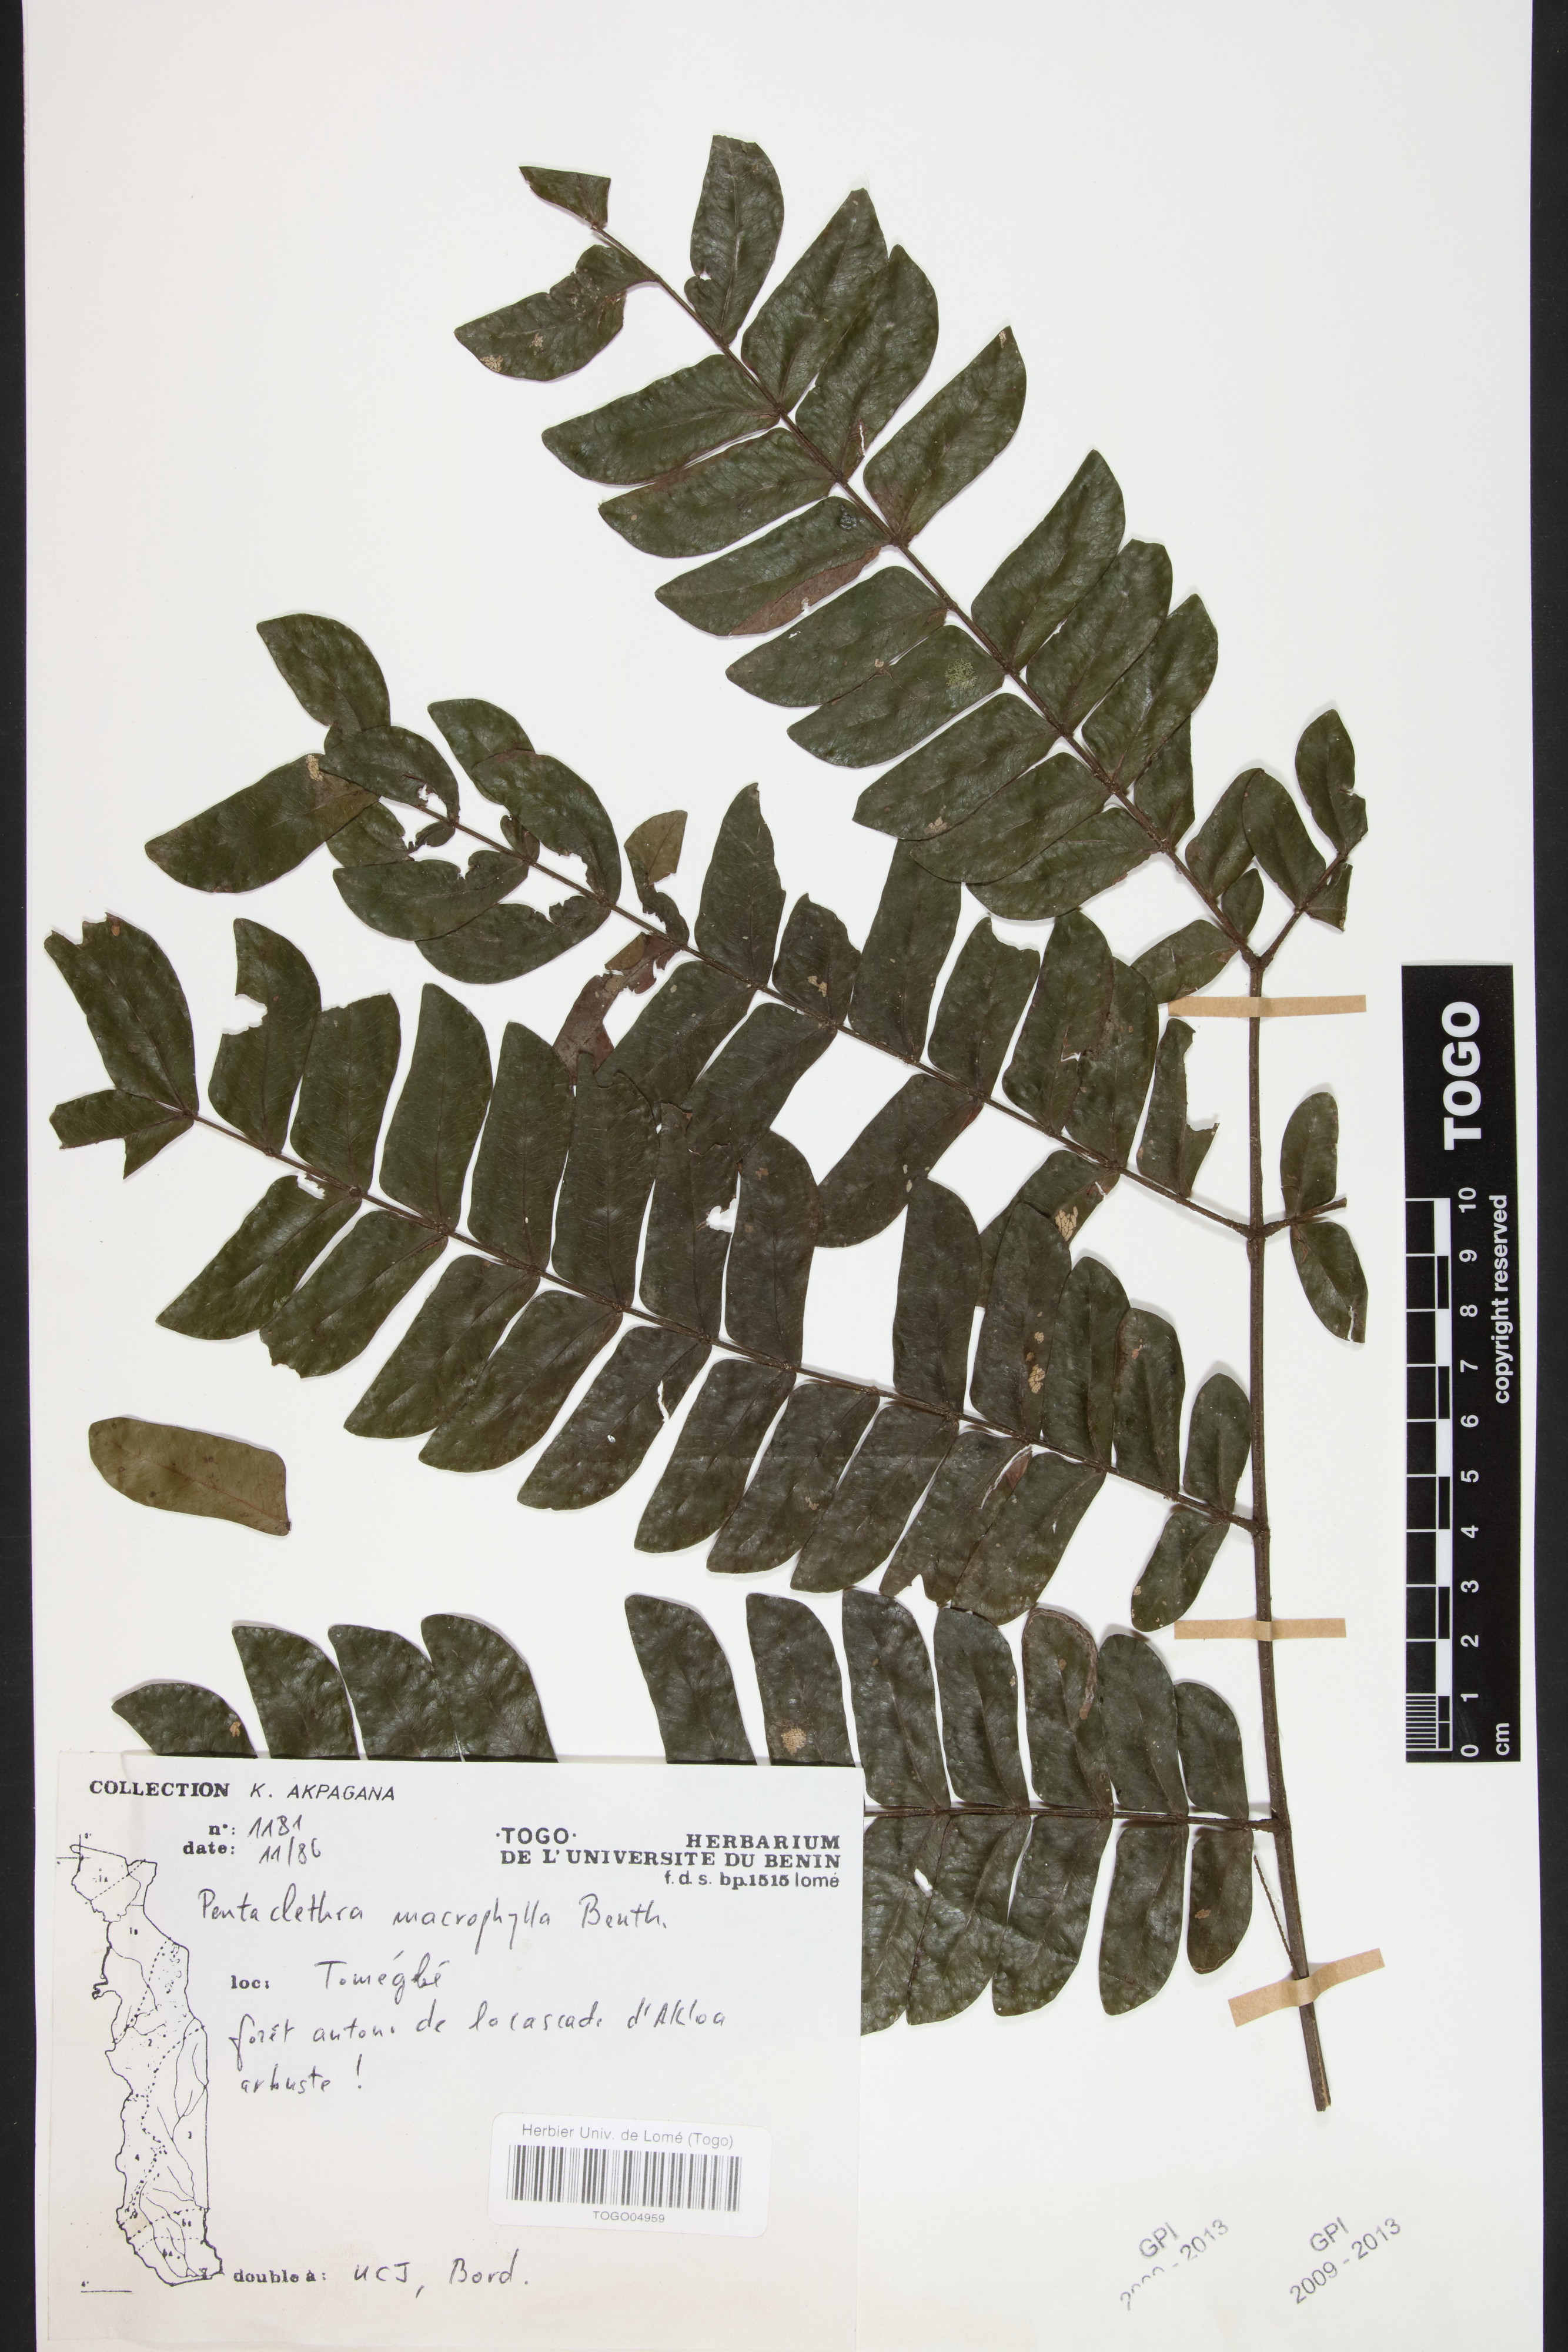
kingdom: Plantae
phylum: Tracheophyta
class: Magnoliopsida
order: Fabales
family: Fabaceae
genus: Pentaclethra
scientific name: Pentaclethra macrophylla
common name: African oil bean
